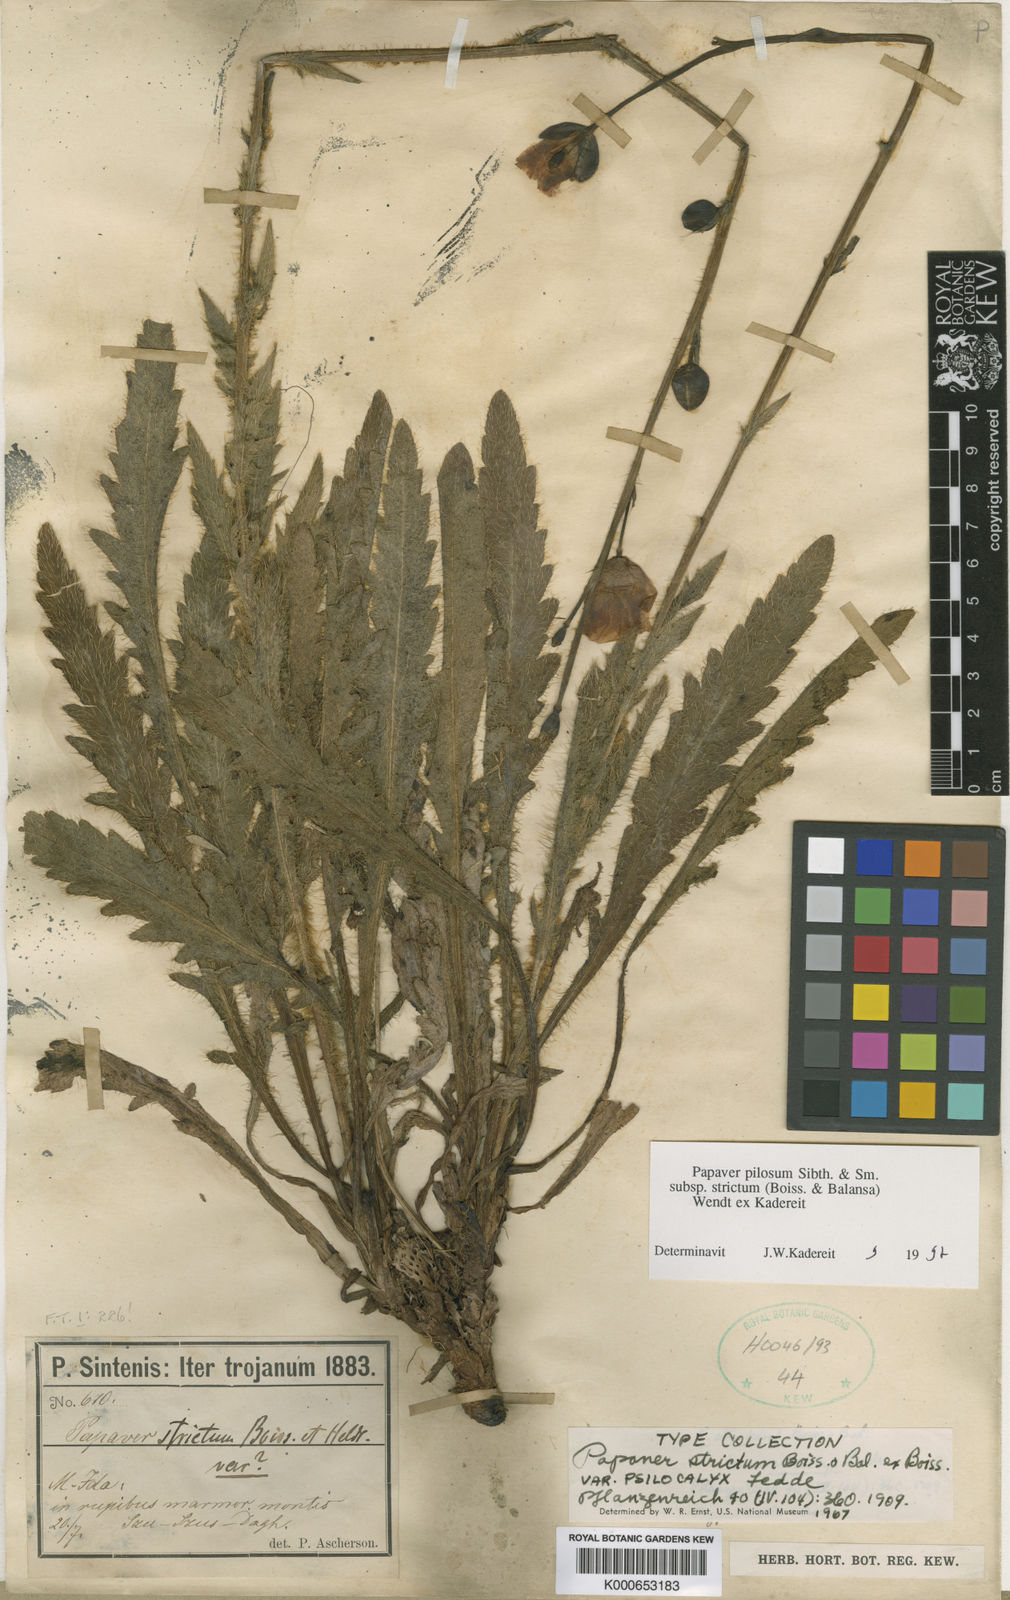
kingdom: Plantae
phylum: Tracheophyta
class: Magnoliopsida
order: Ranunculales
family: Papaveraceae
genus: Papaver
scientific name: Papaver pilosum
